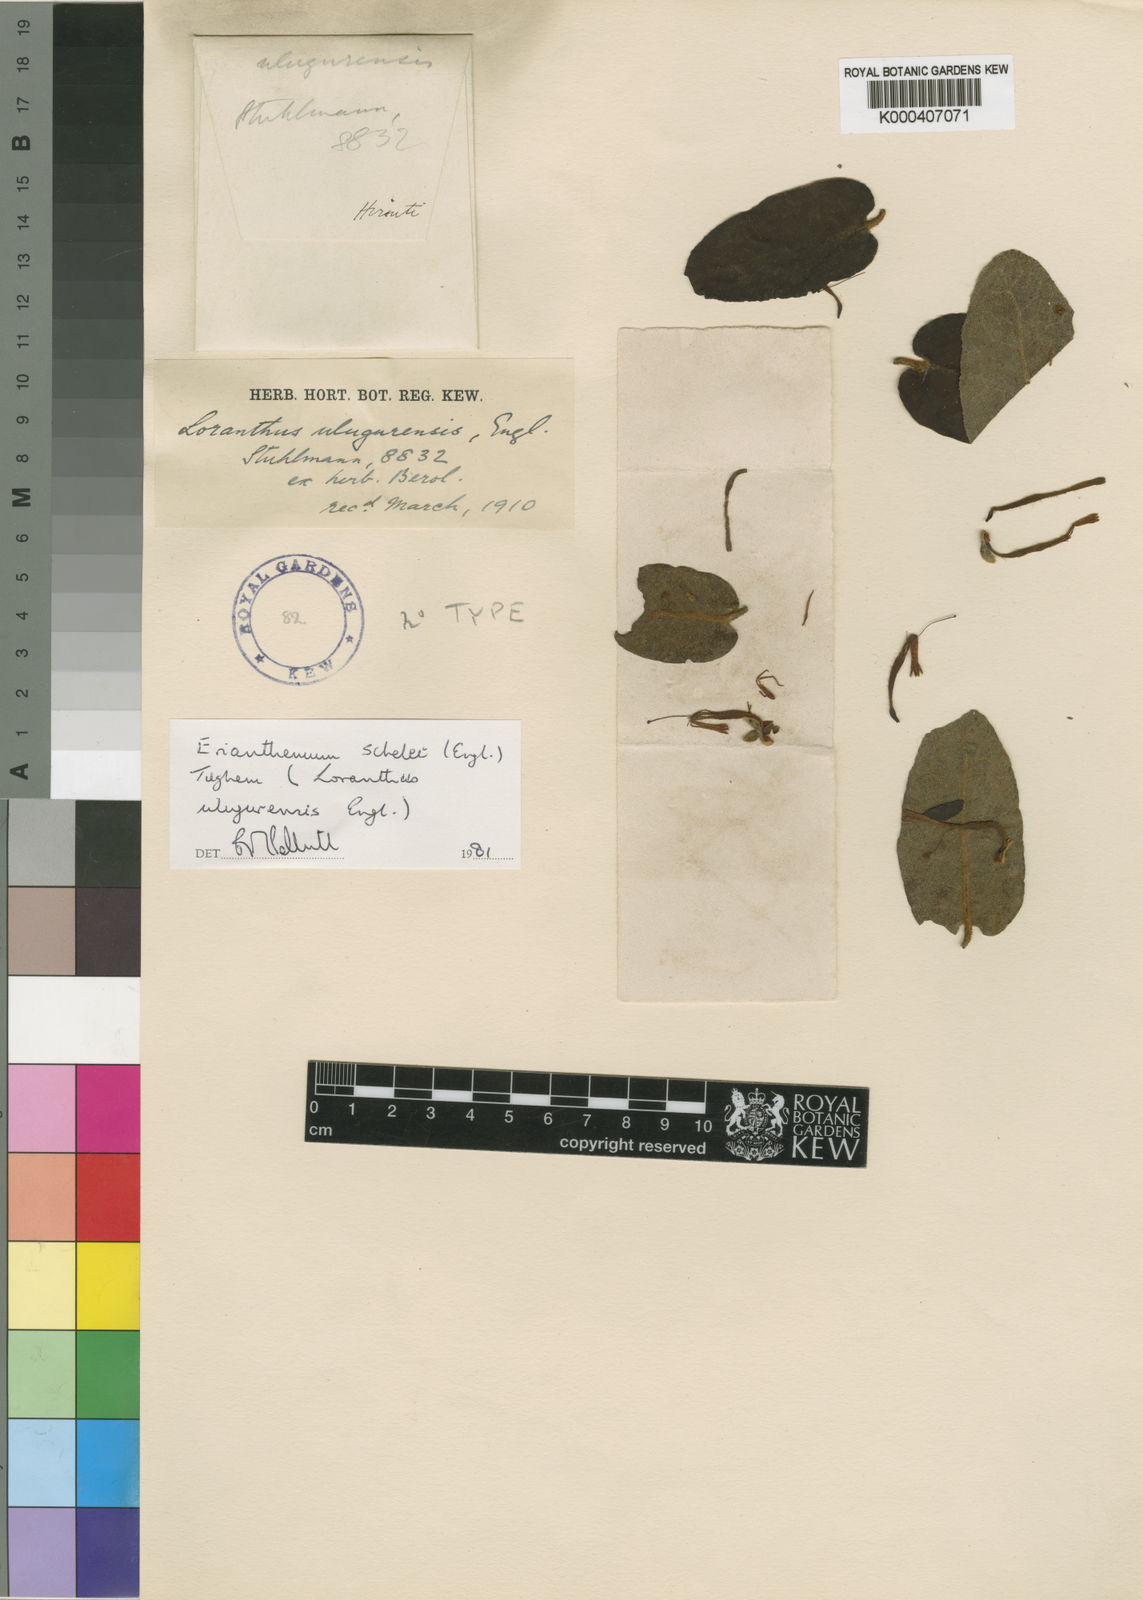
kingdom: Plantae
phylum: Tracheophyta
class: Magnoliopsida
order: Santalales
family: Loranthaceae
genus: Erianthemum
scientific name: Erianthemum schelei
